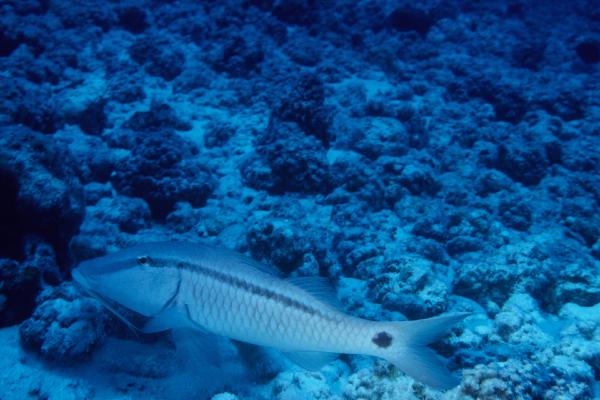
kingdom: Animalia
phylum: Chordata
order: Perciformes
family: Mullidae
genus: Parupeneus
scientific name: Parupeneus barberinus
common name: Dash-and-dot goatfish
